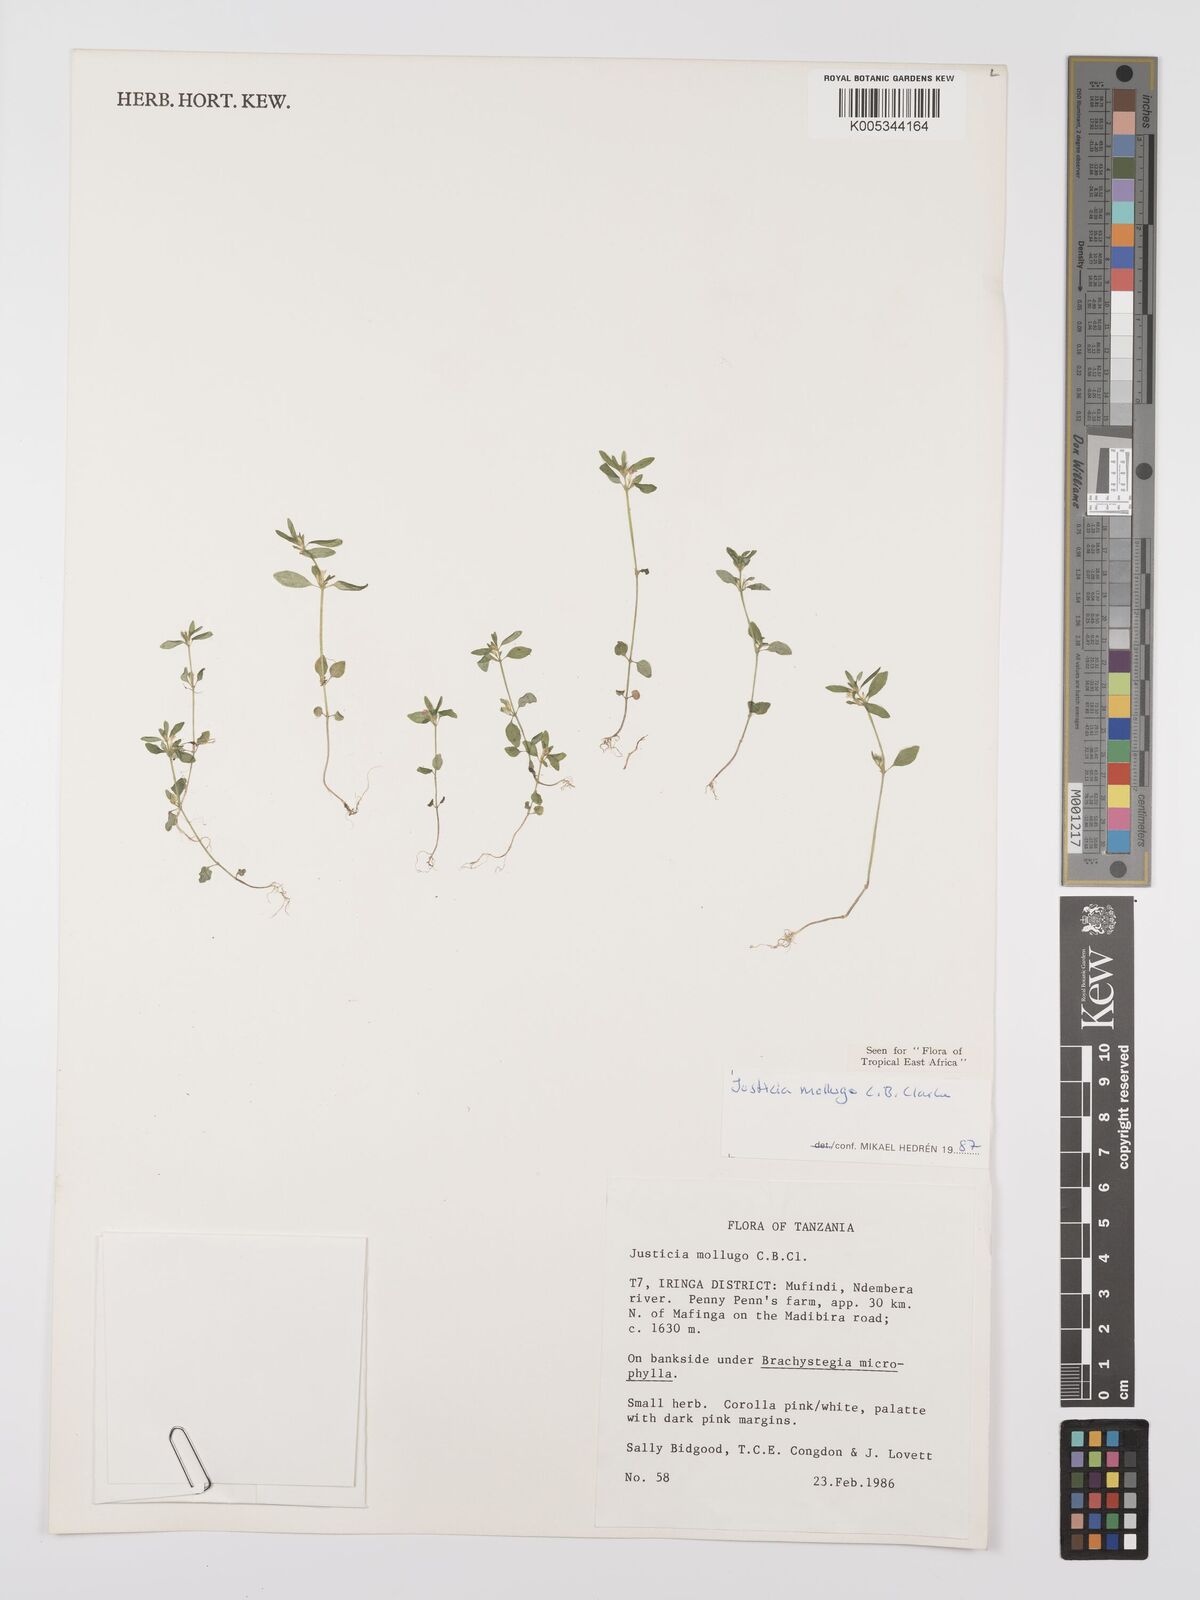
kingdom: Plantae
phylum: Tracheophyta
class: Magnoliopsida
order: Lamiales
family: Acanthaceae
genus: Justicia
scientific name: Justicia mollugo
